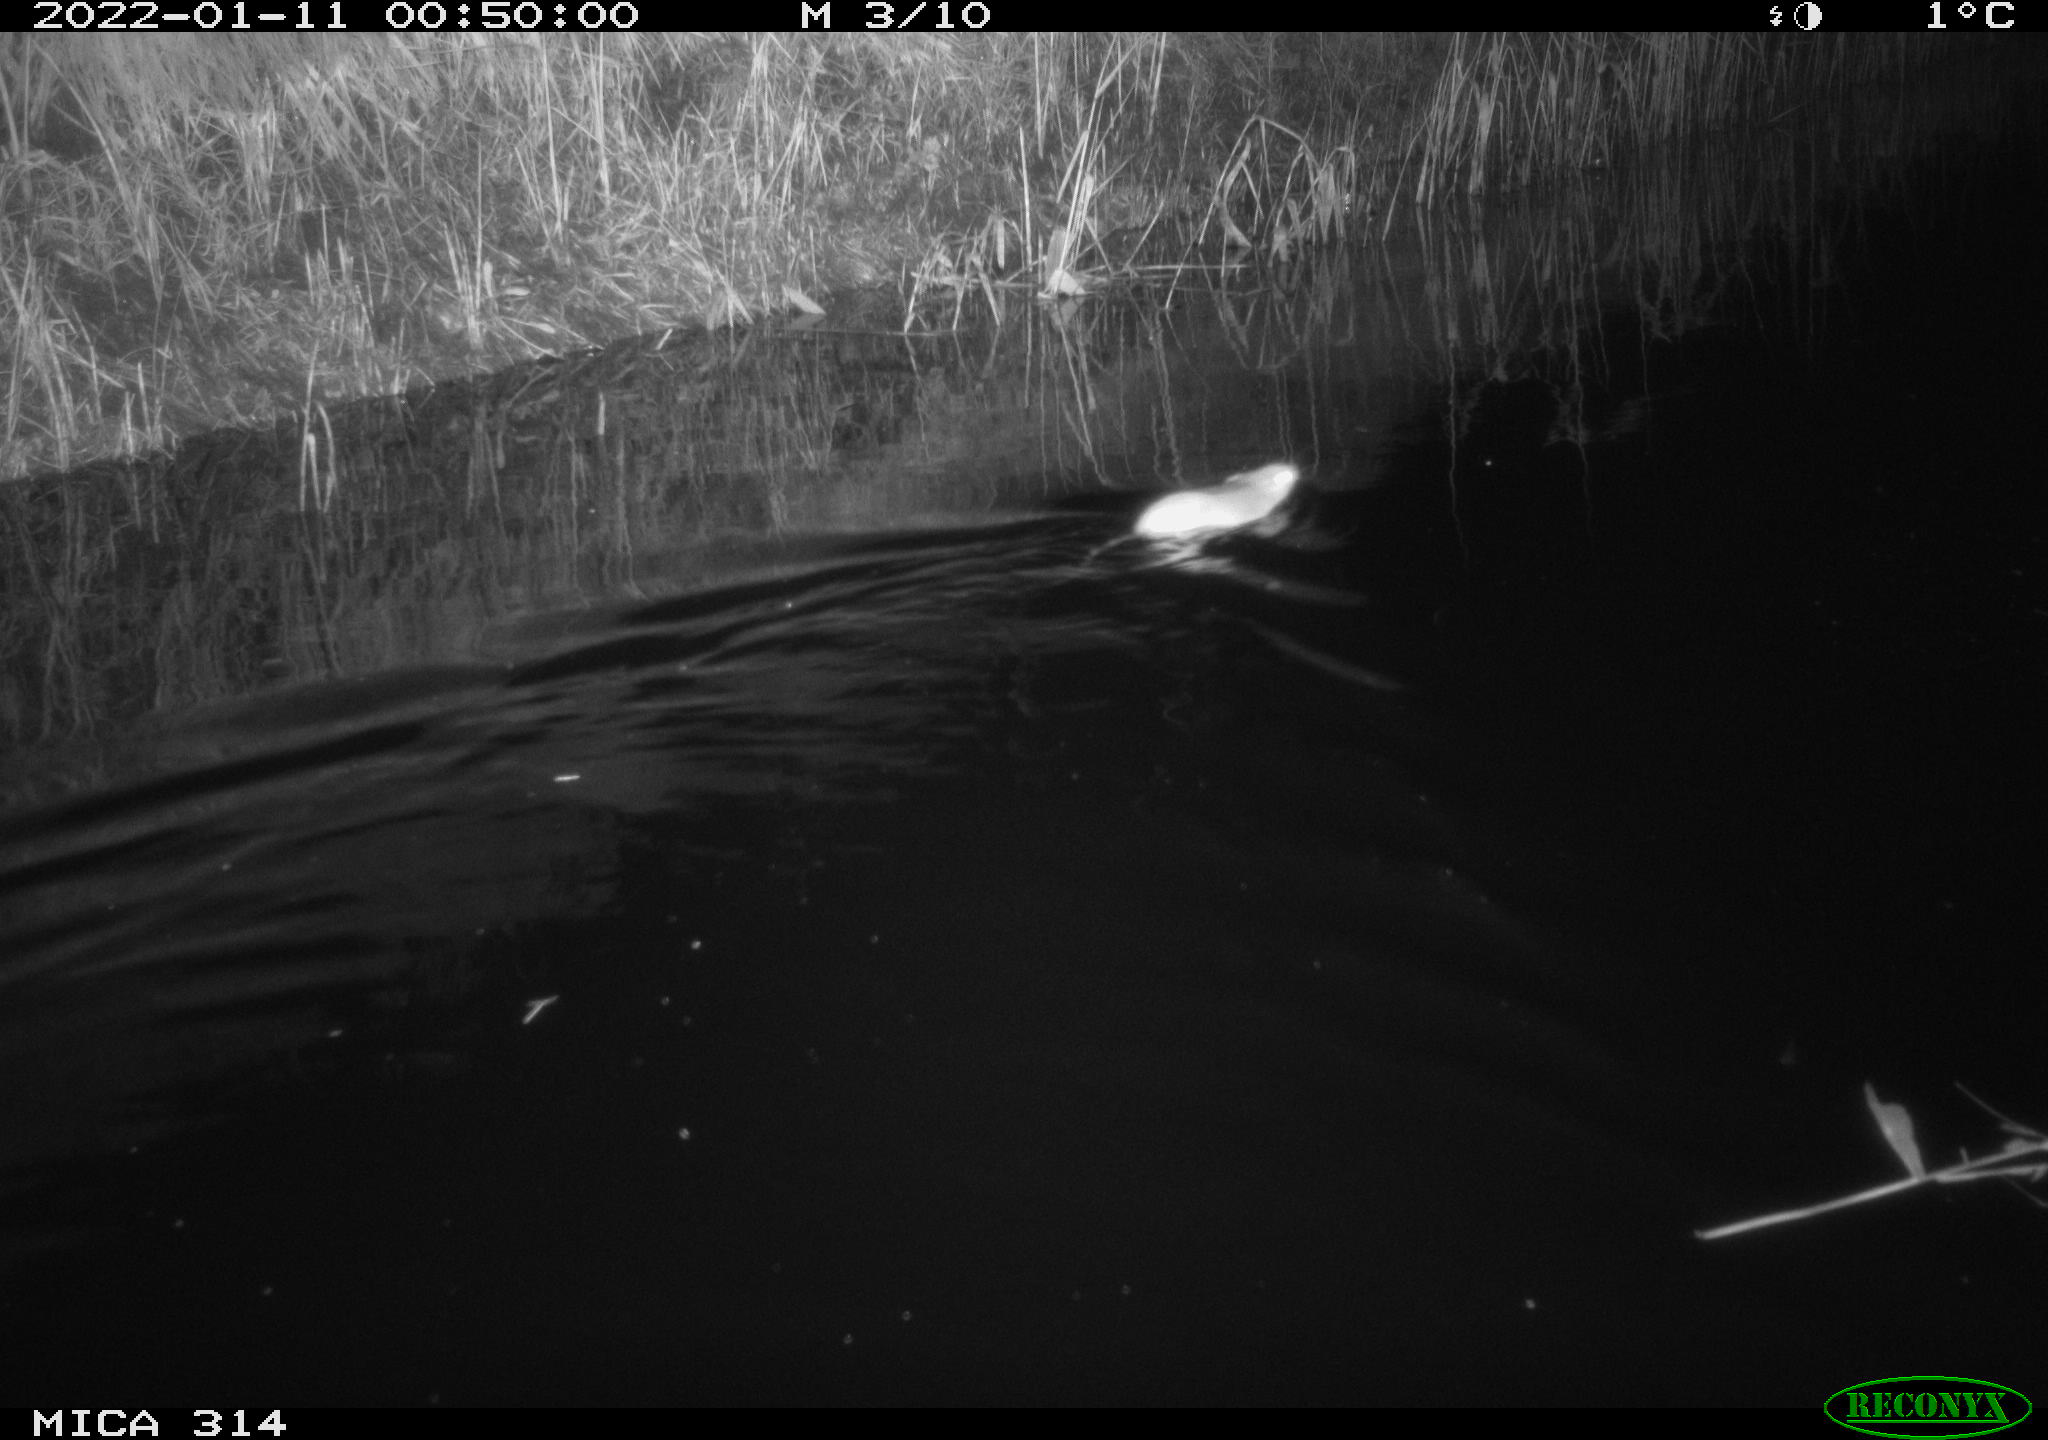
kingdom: Animalia
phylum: Chordata
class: Mammalia
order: Rodentia
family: Muridae
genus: Rattus
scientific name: Rattus norvegicus
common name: Brown rat
